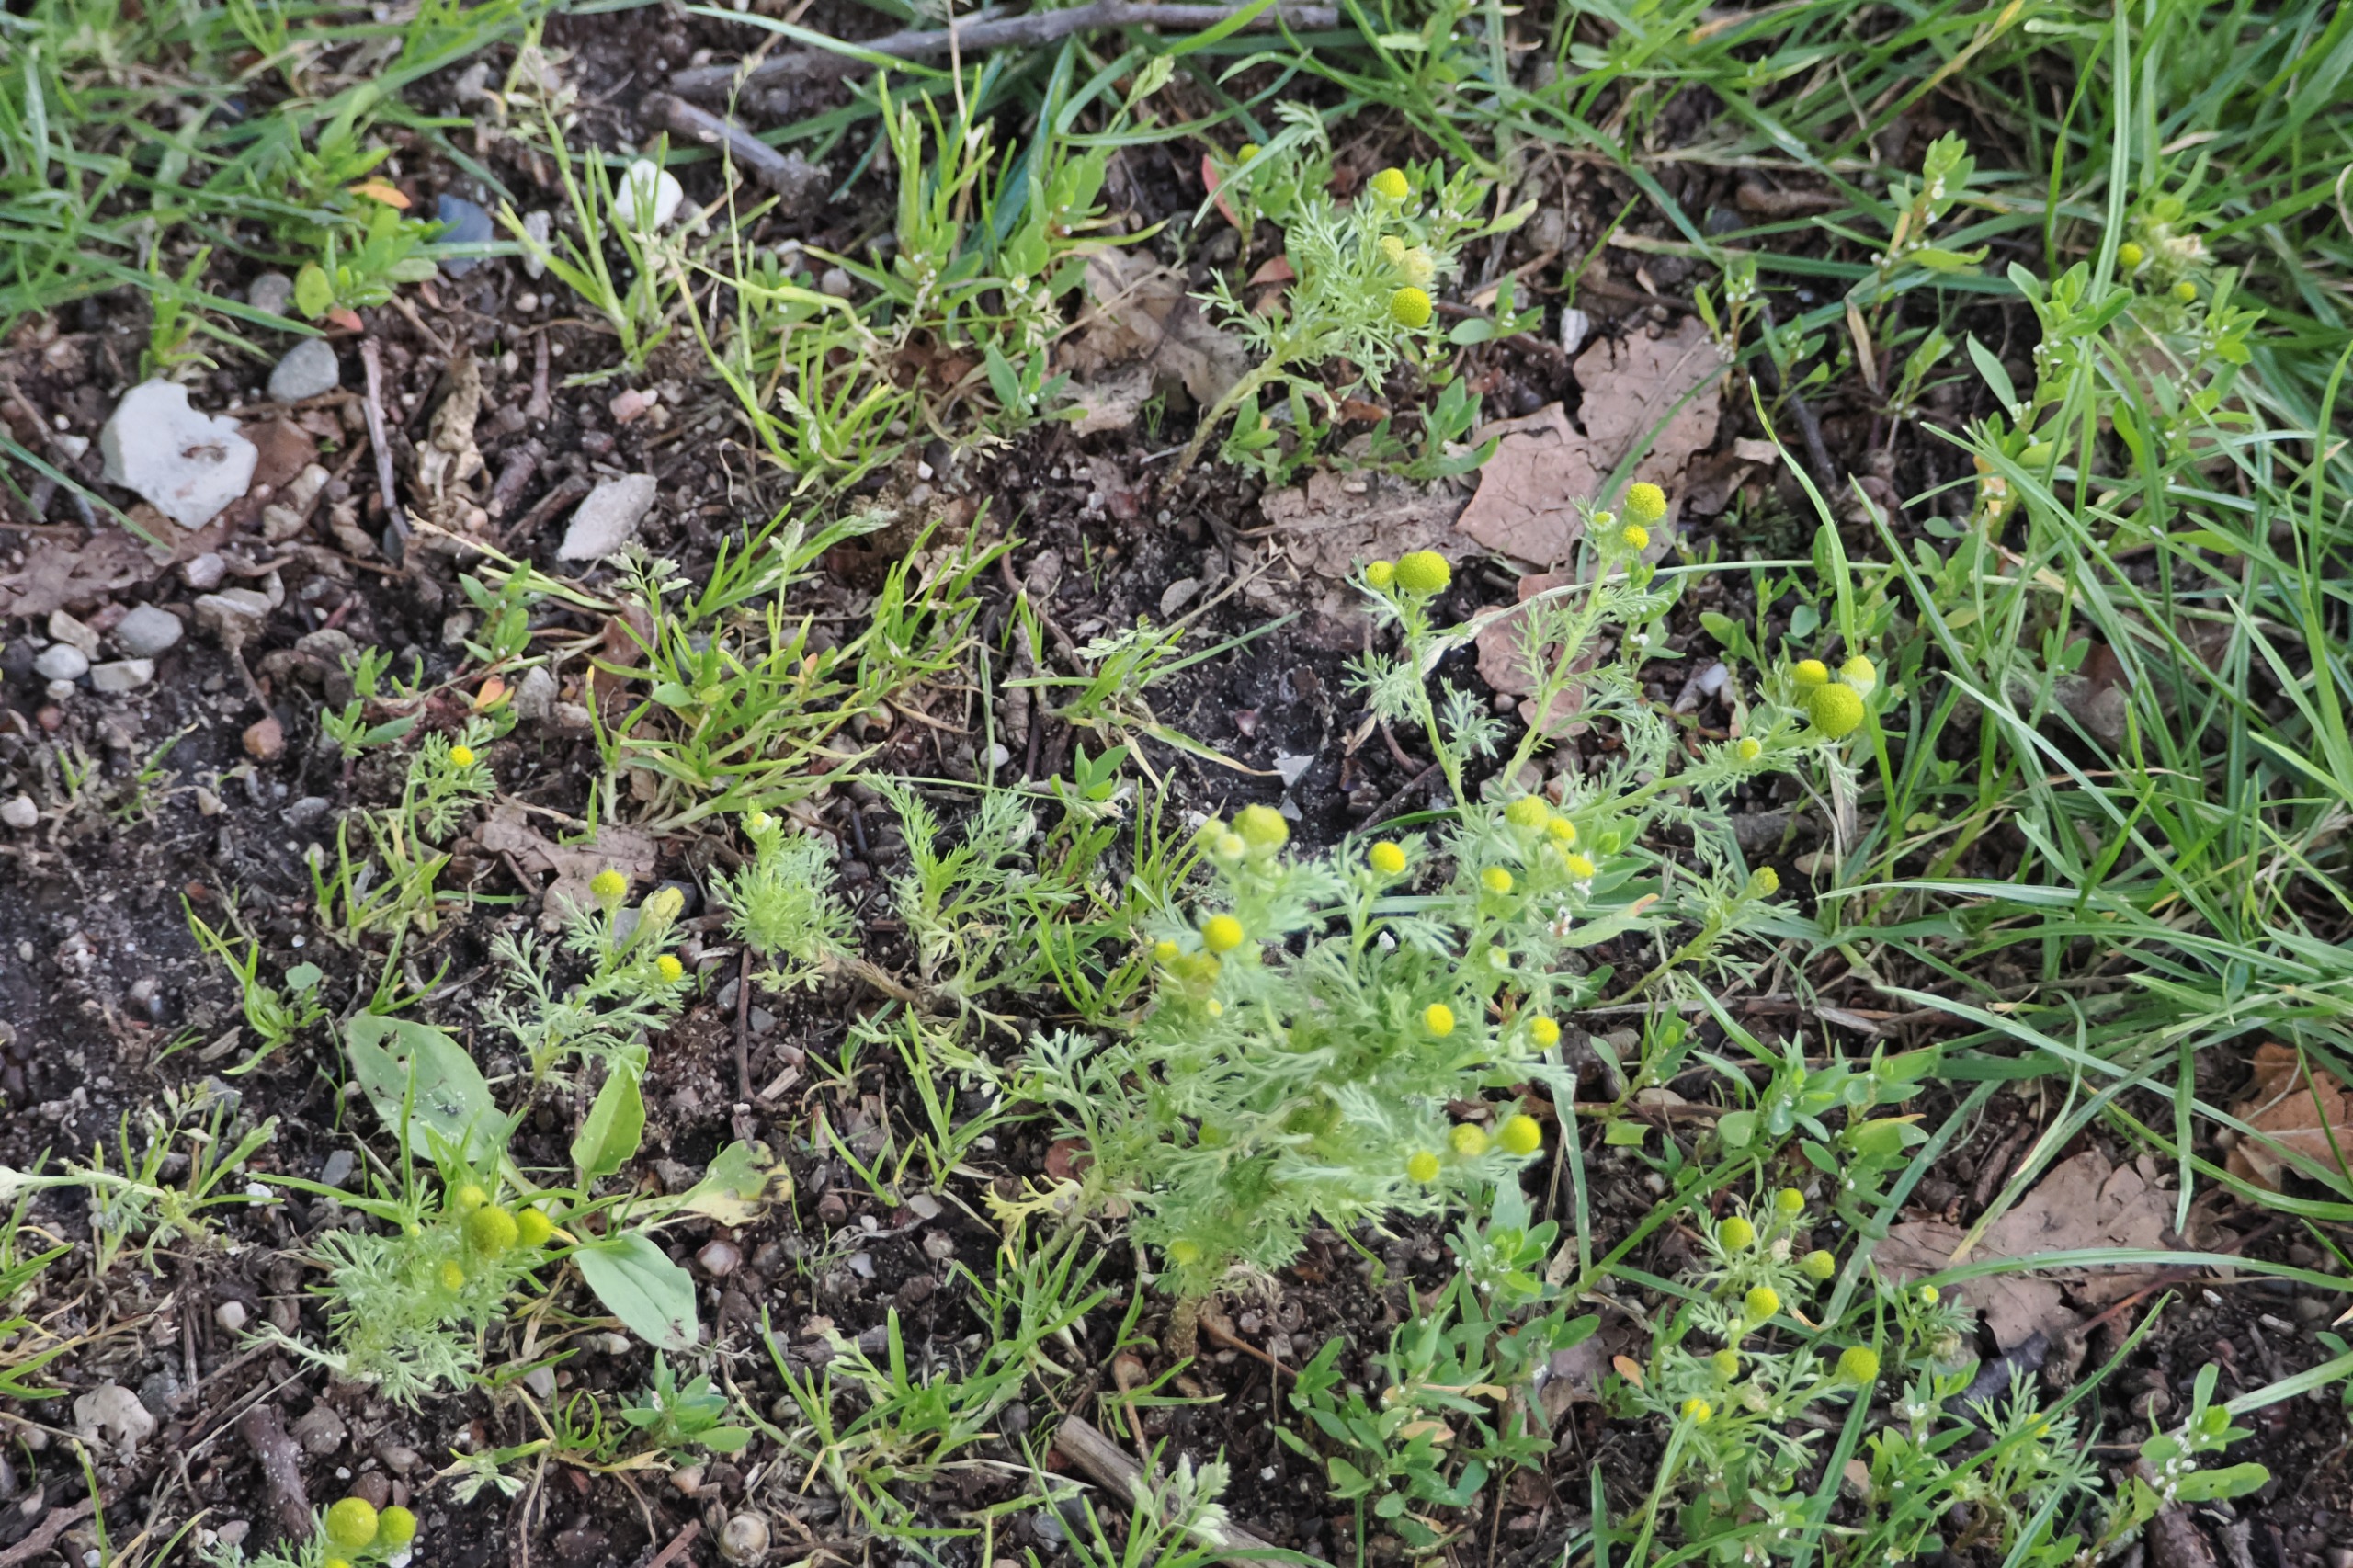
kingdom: Plantae
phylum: Tracheophyta
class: Magnoliopsida
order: Asterales
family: Asteraceae
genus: Matricaria
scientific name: Matricaria discoidea
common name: Skive-kamille
